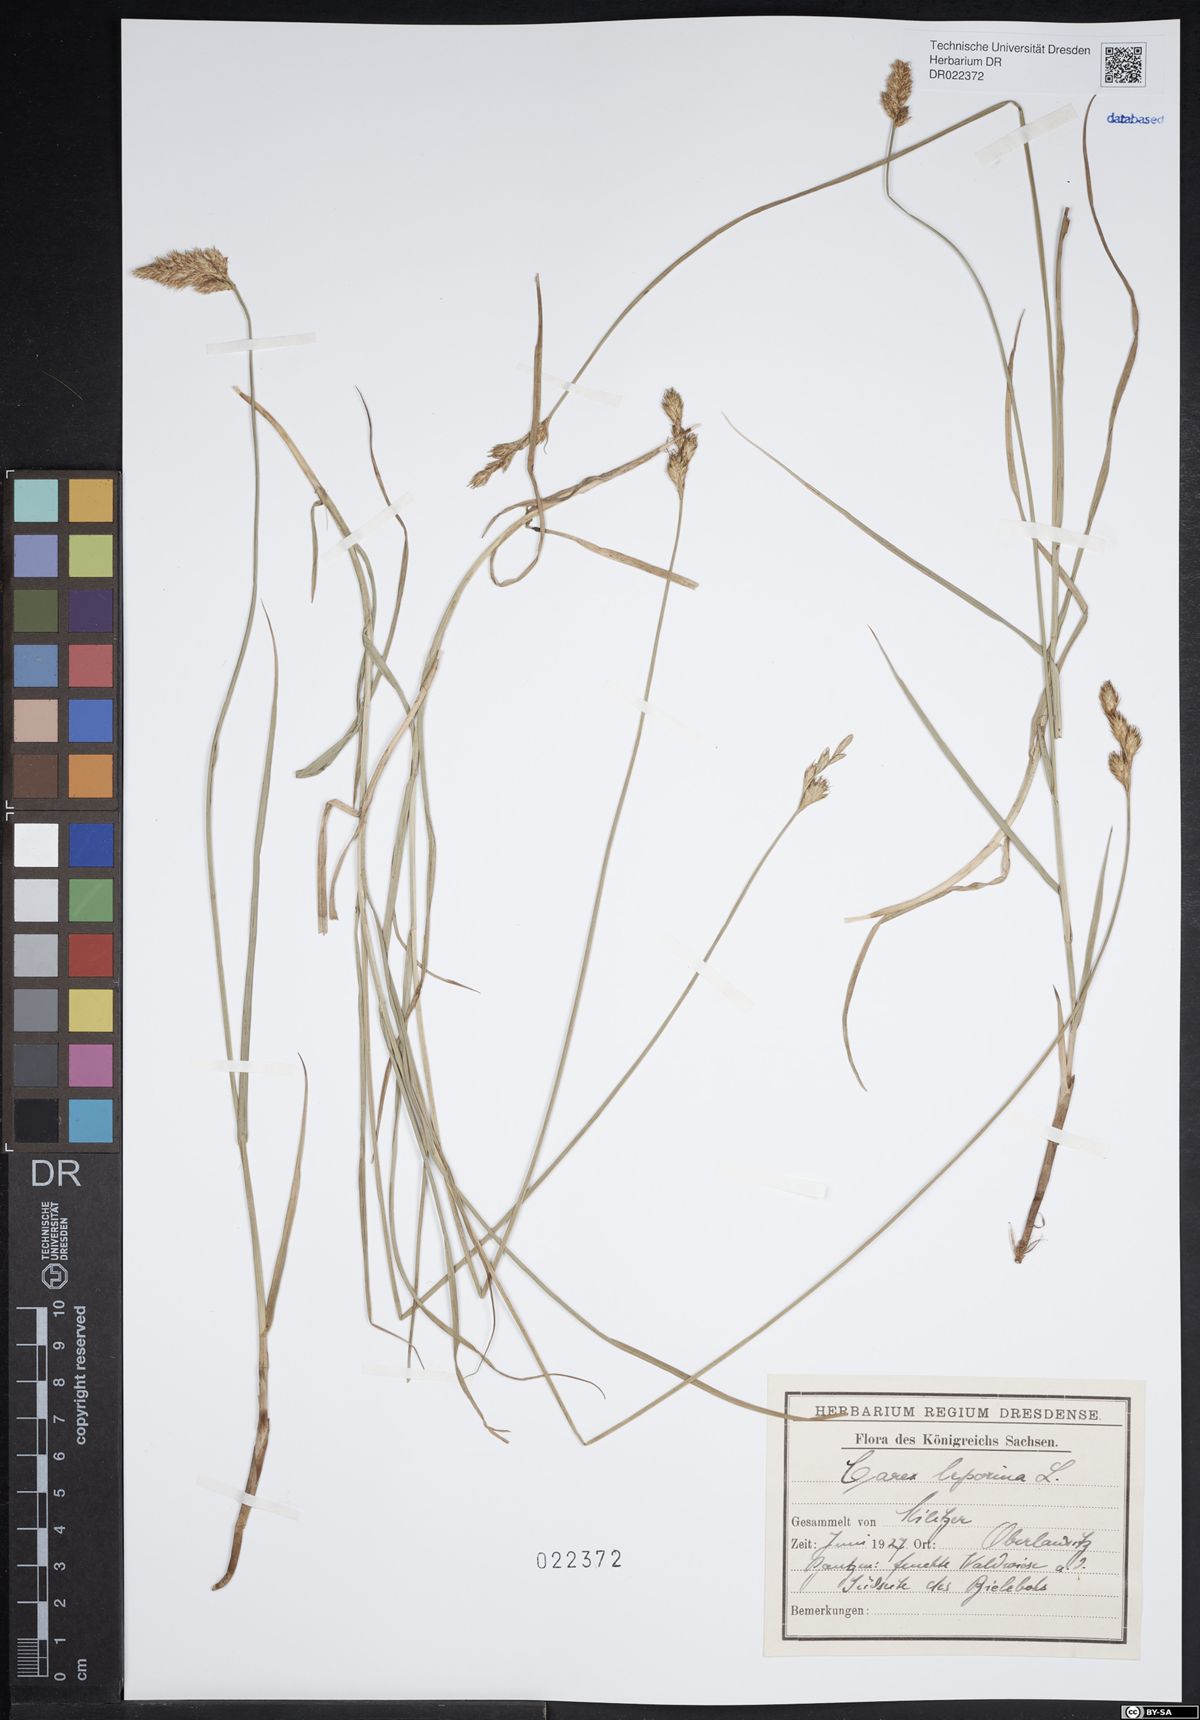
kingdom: Plantae
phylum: Tracheophyta
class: Liliopsida
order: Poales
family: Cyperaceae
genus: Carex
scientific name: Carex leporina
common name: Oval sedge
